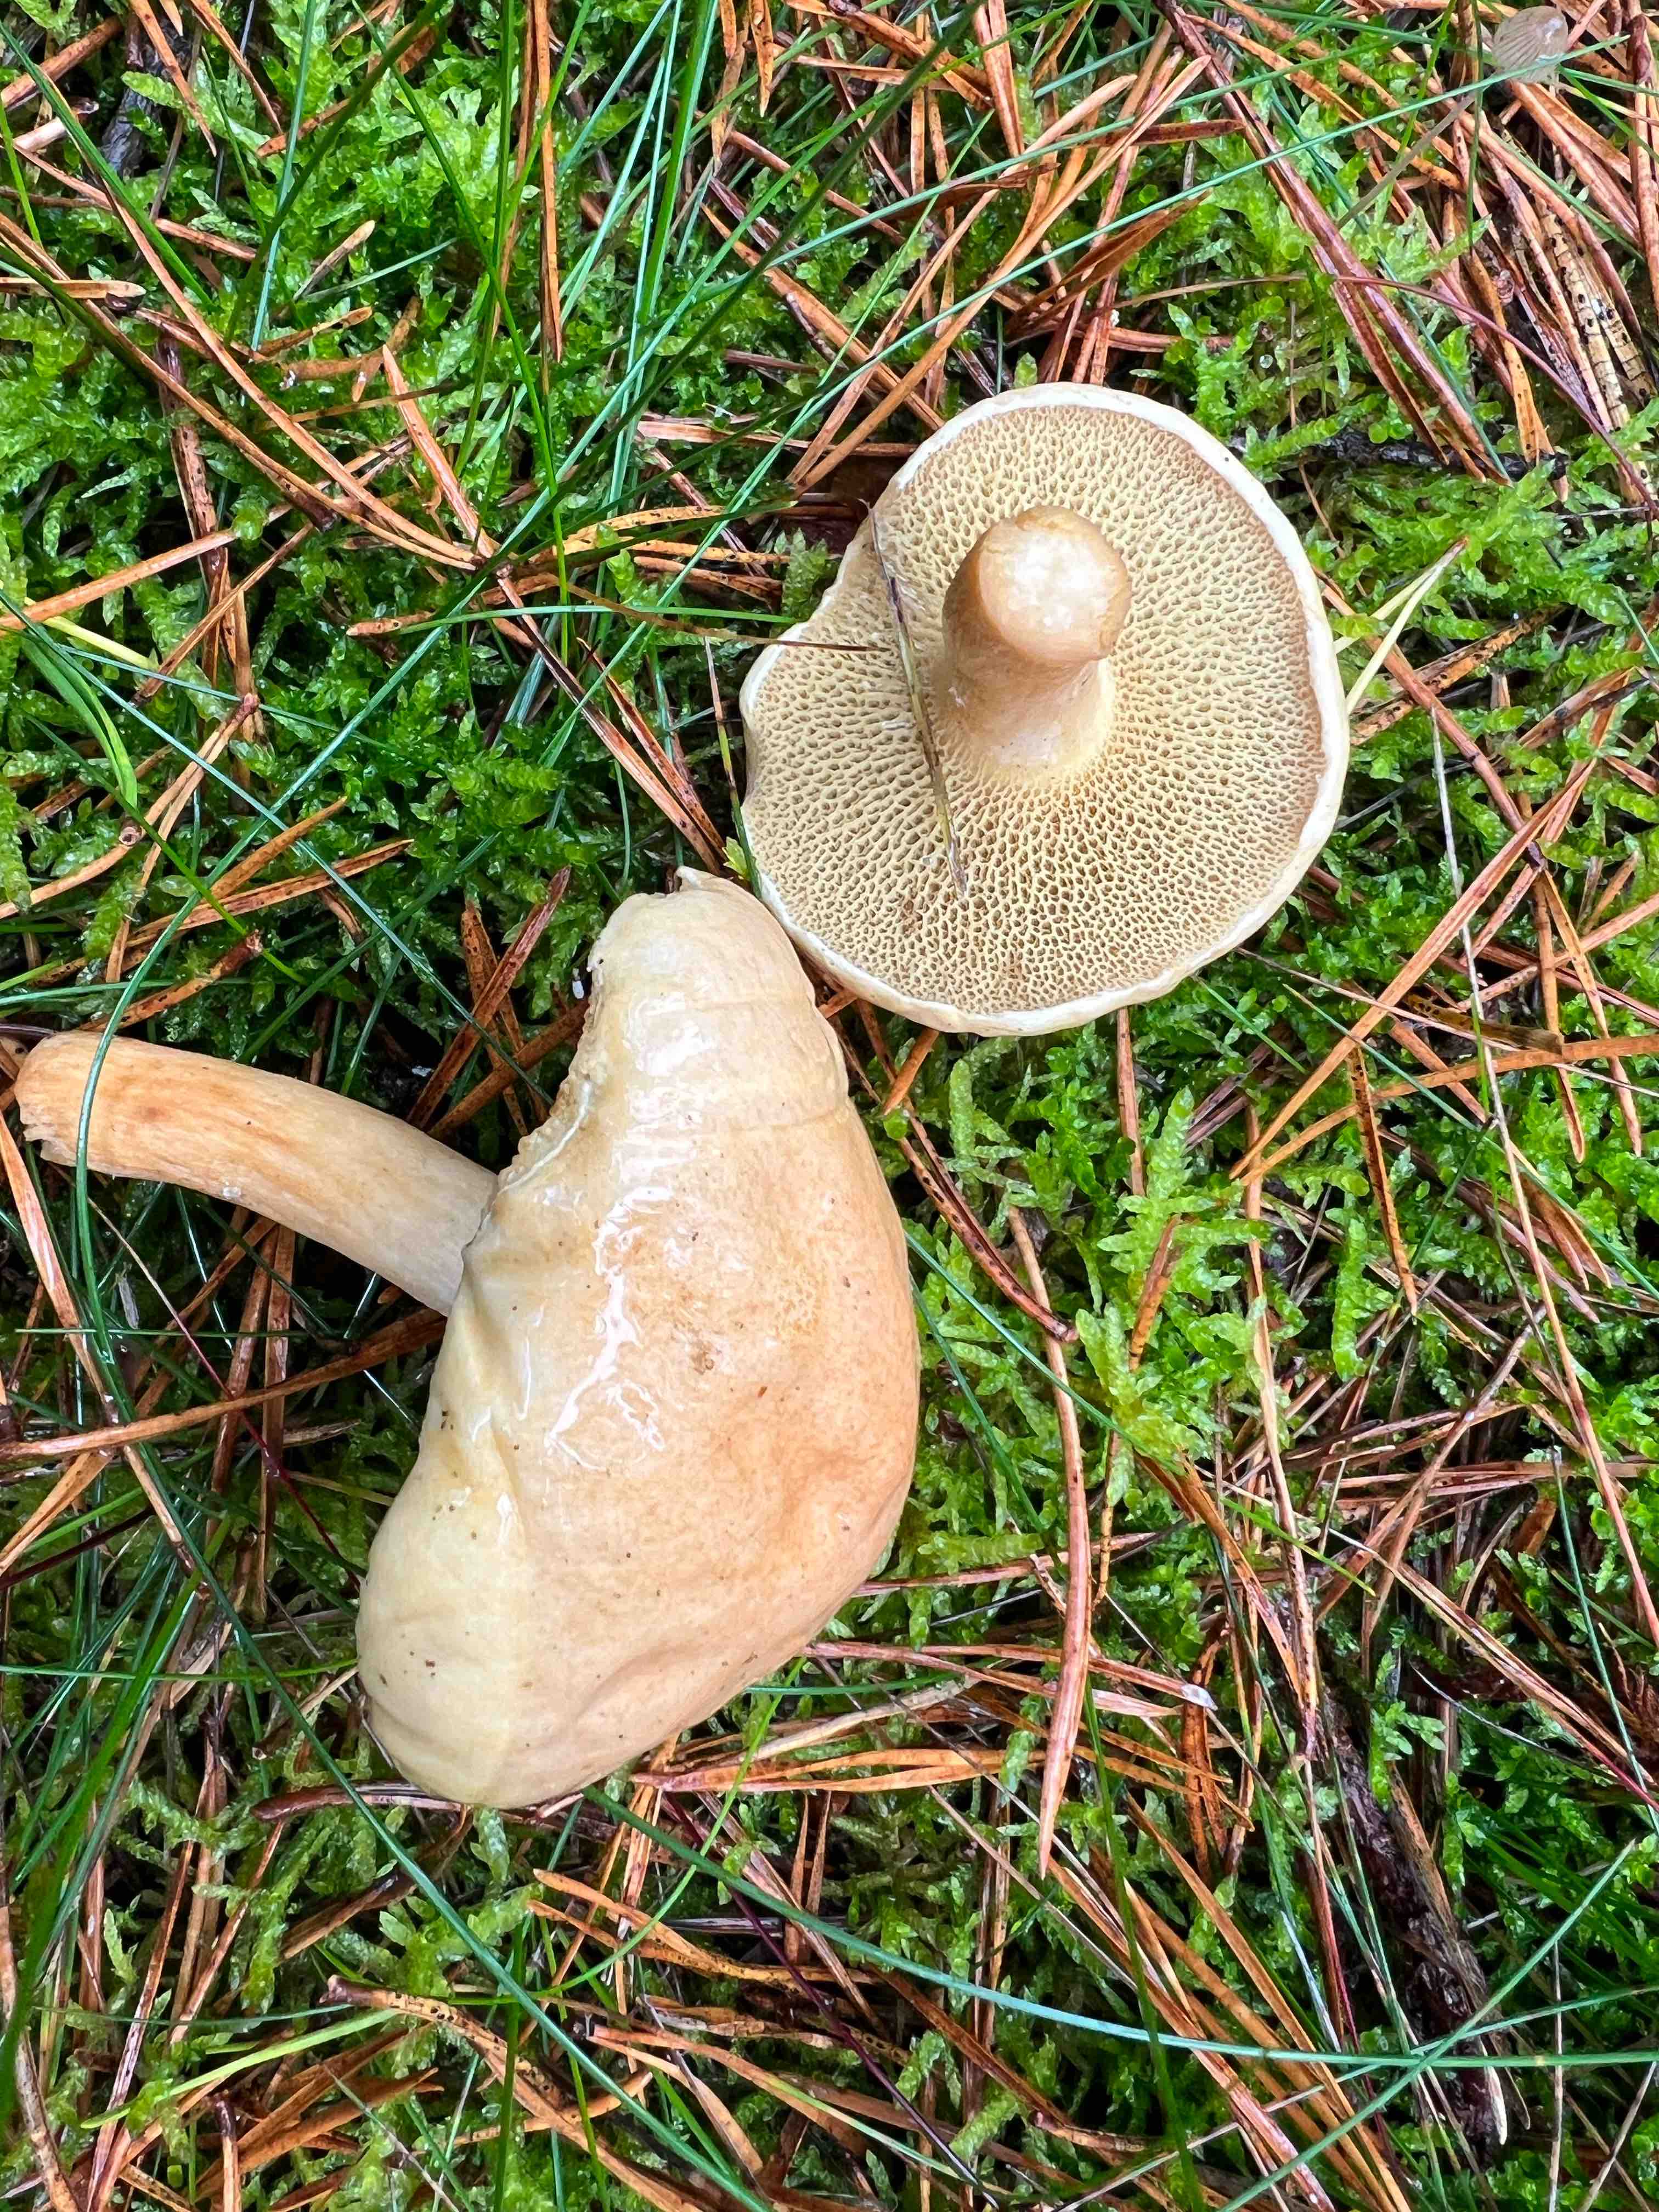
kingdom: Fungi
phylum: Basidiomycota
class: Agaricomycetes
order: Boletales
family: Suillaceae
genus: Suillus
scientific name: Suillus bovinus
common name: grovporet slimrørhat
